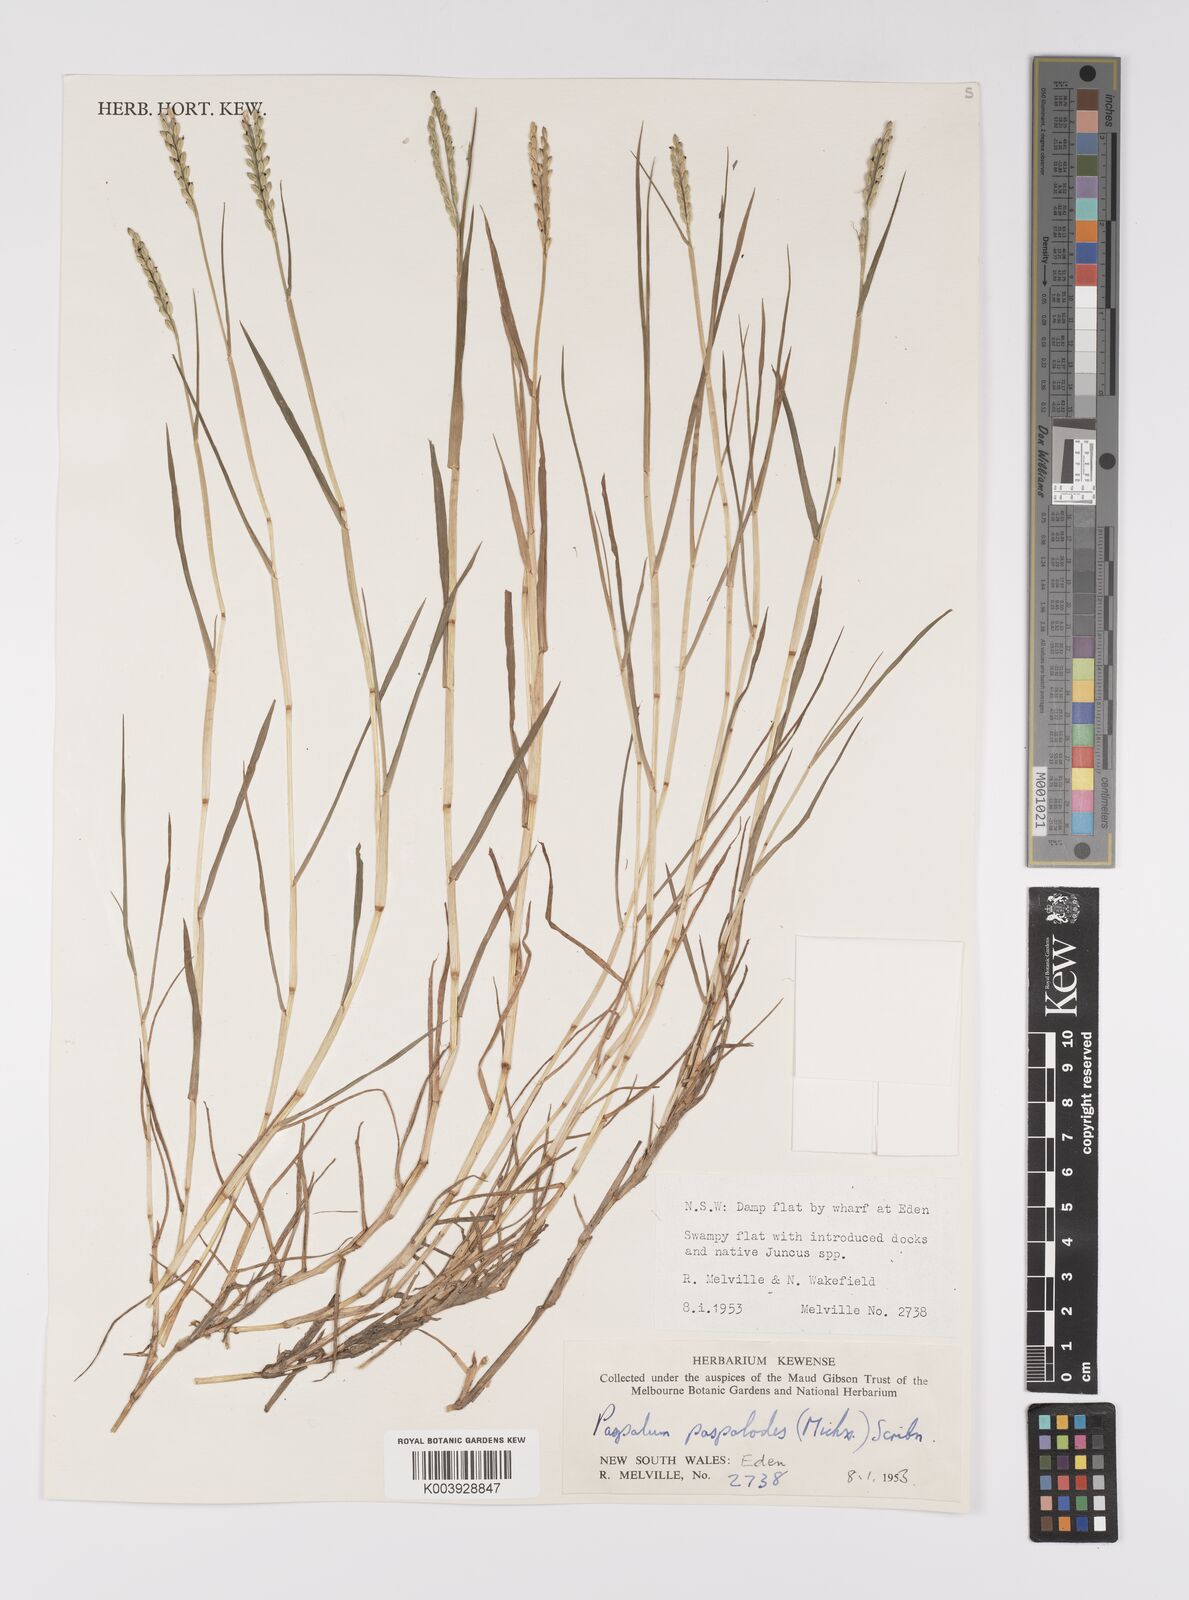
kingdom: Plantae
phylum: Tracheophyta
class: Liliopsida
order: Poales
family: Poaceae
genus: Paspalum
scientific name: Paspalum distichum
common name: Knotgrass
